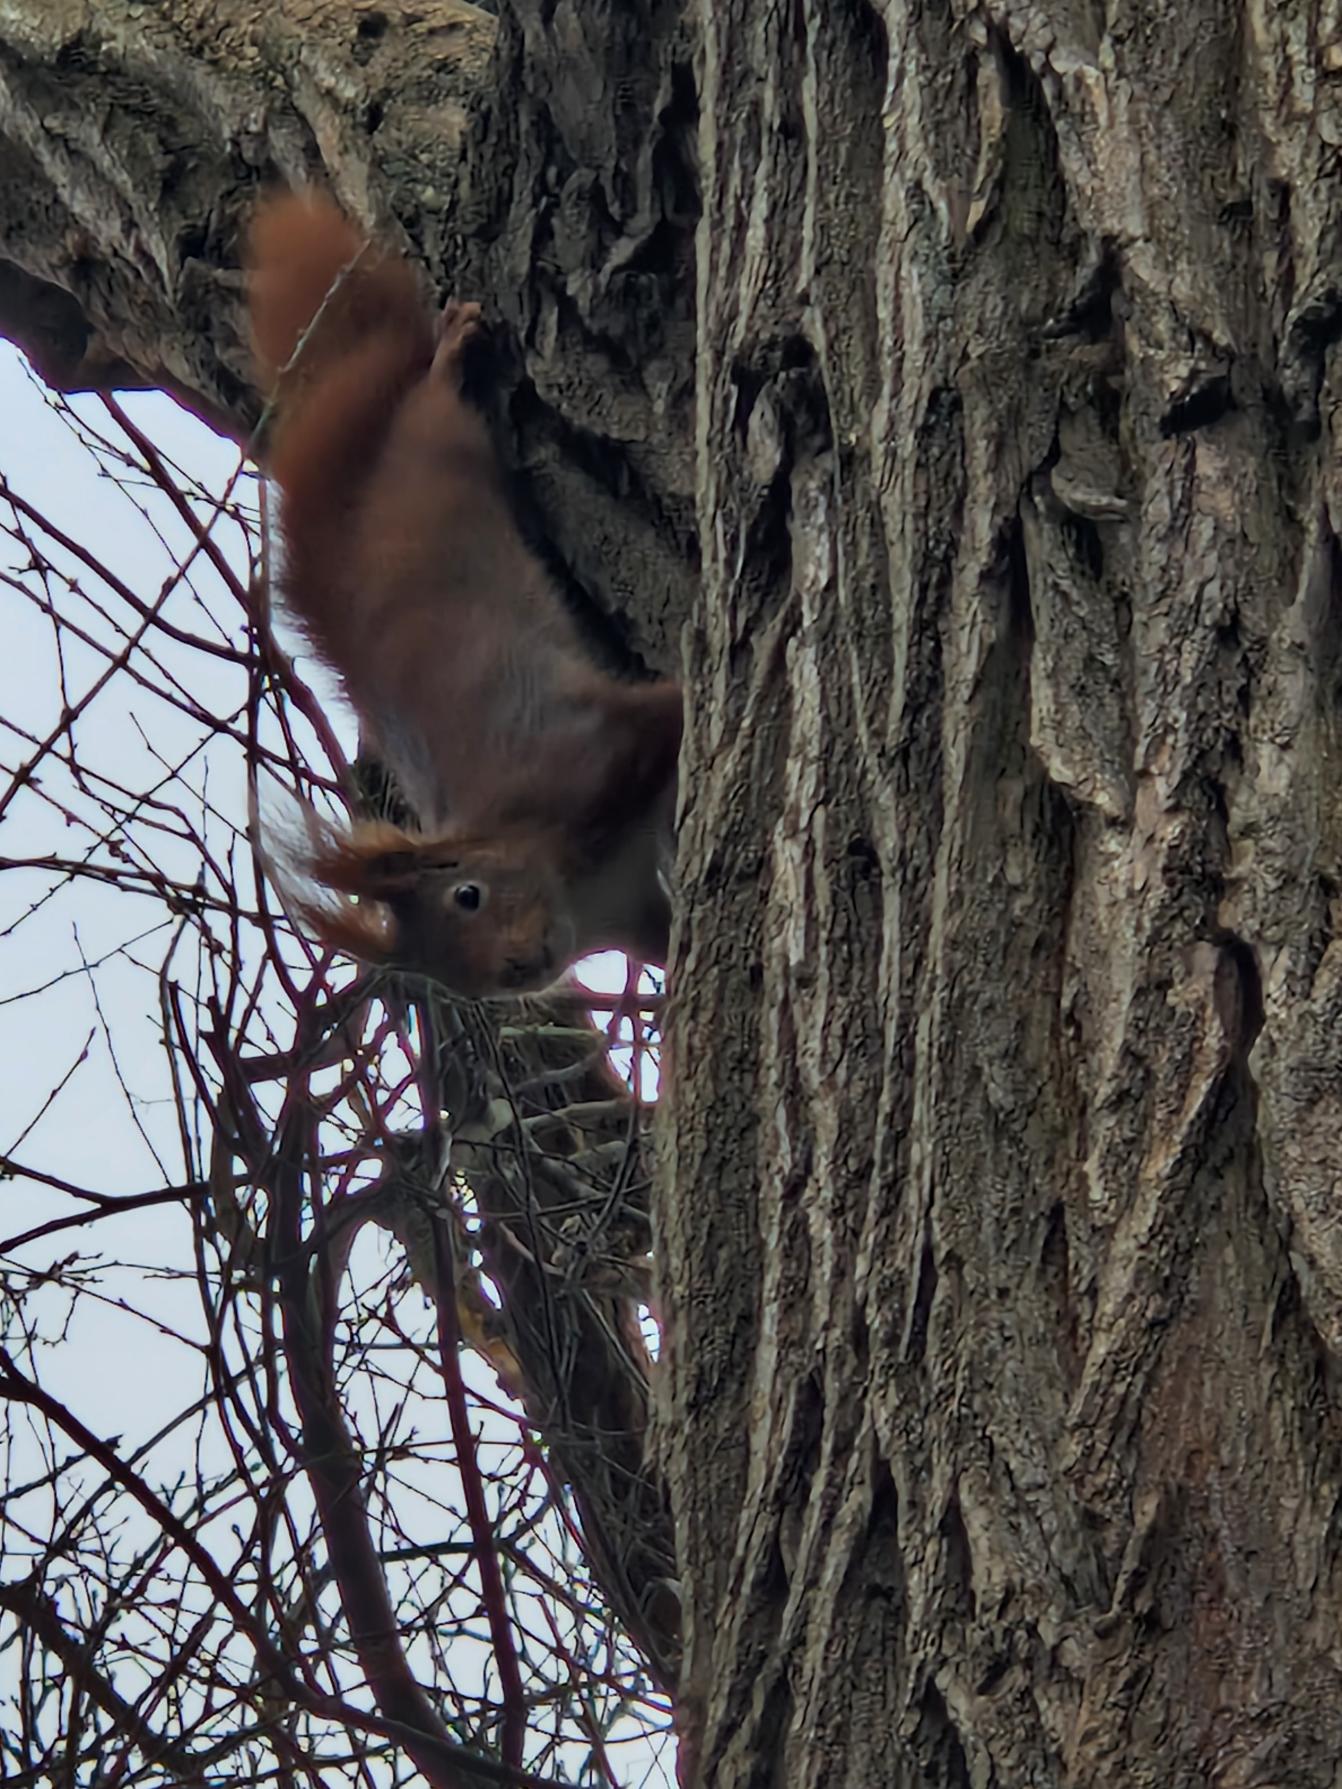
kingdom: Animalia
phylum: Chordata
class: Mammalia
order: Rodentia
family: Sciuridae
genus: Sciurus
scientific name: Sciurus vulgaris
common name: Egern
